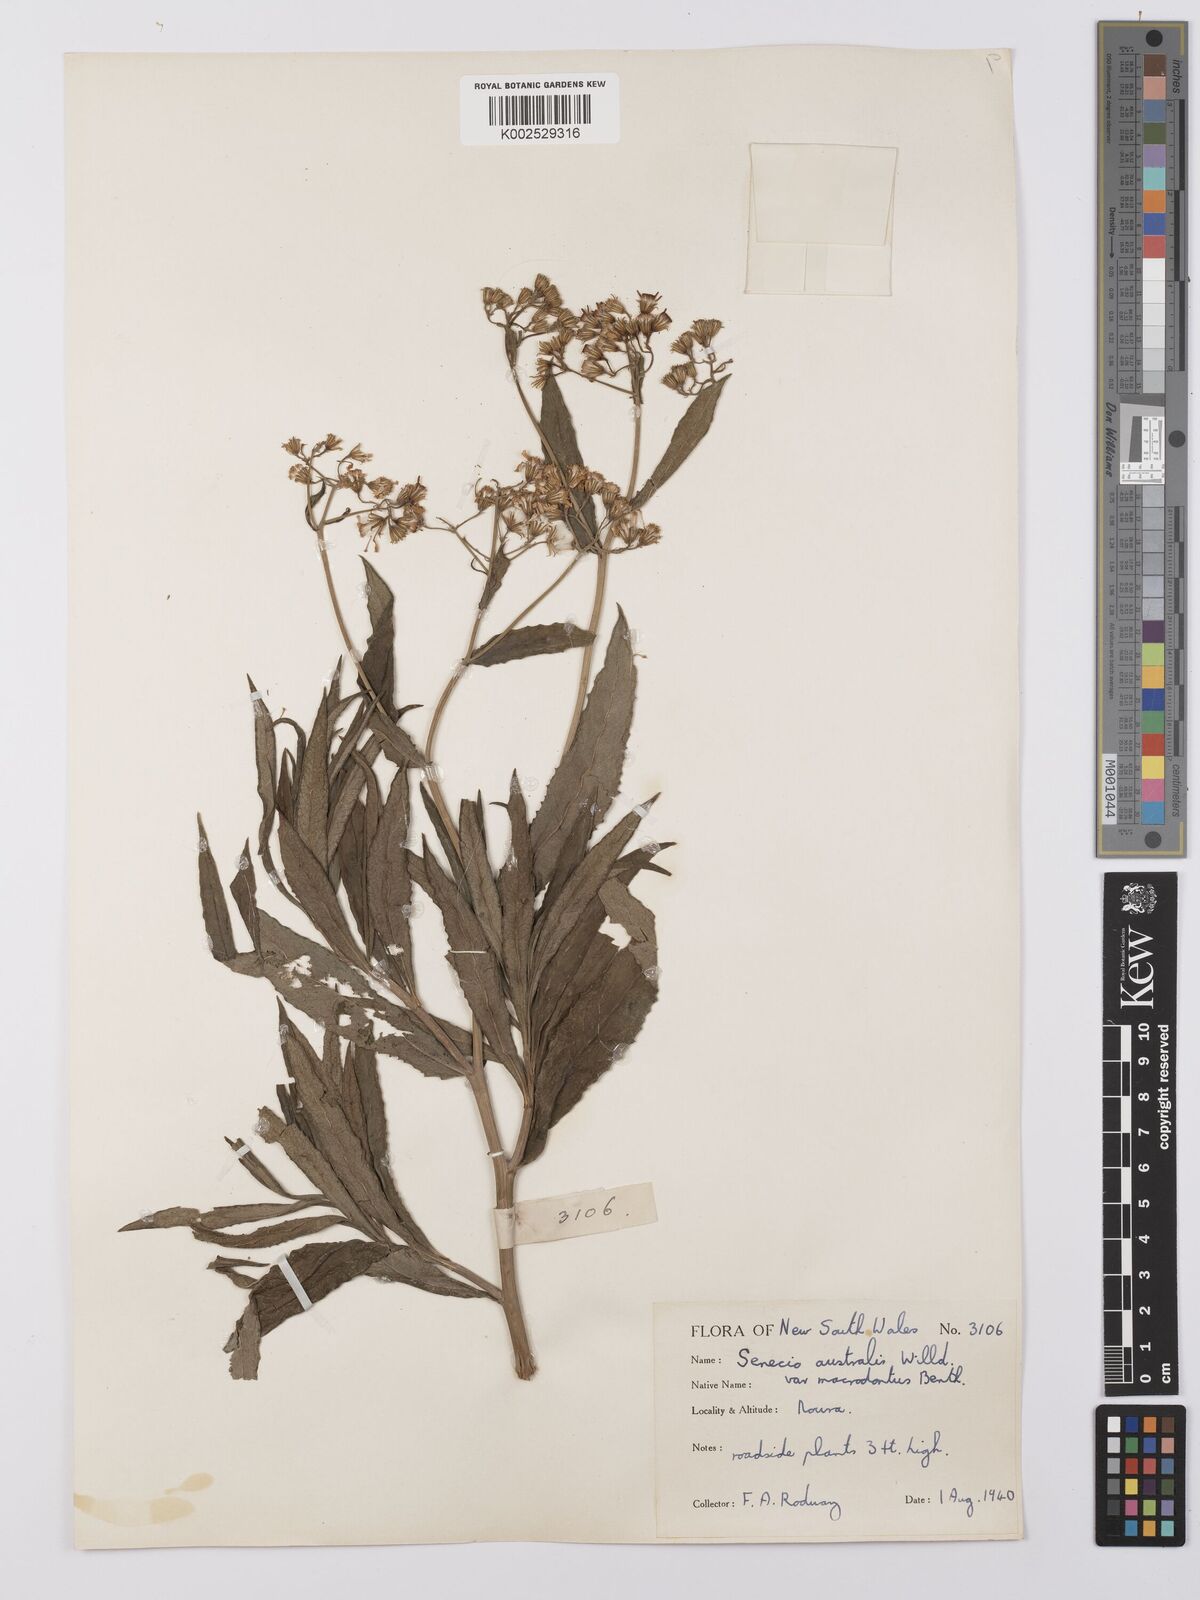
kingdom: Plantae
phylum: Tracheophyta
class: Magnoliopsida
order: Asterales
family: Asteraceae
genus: Senecio
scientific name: Senecio linearifolius
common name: Fireweed groundsel
